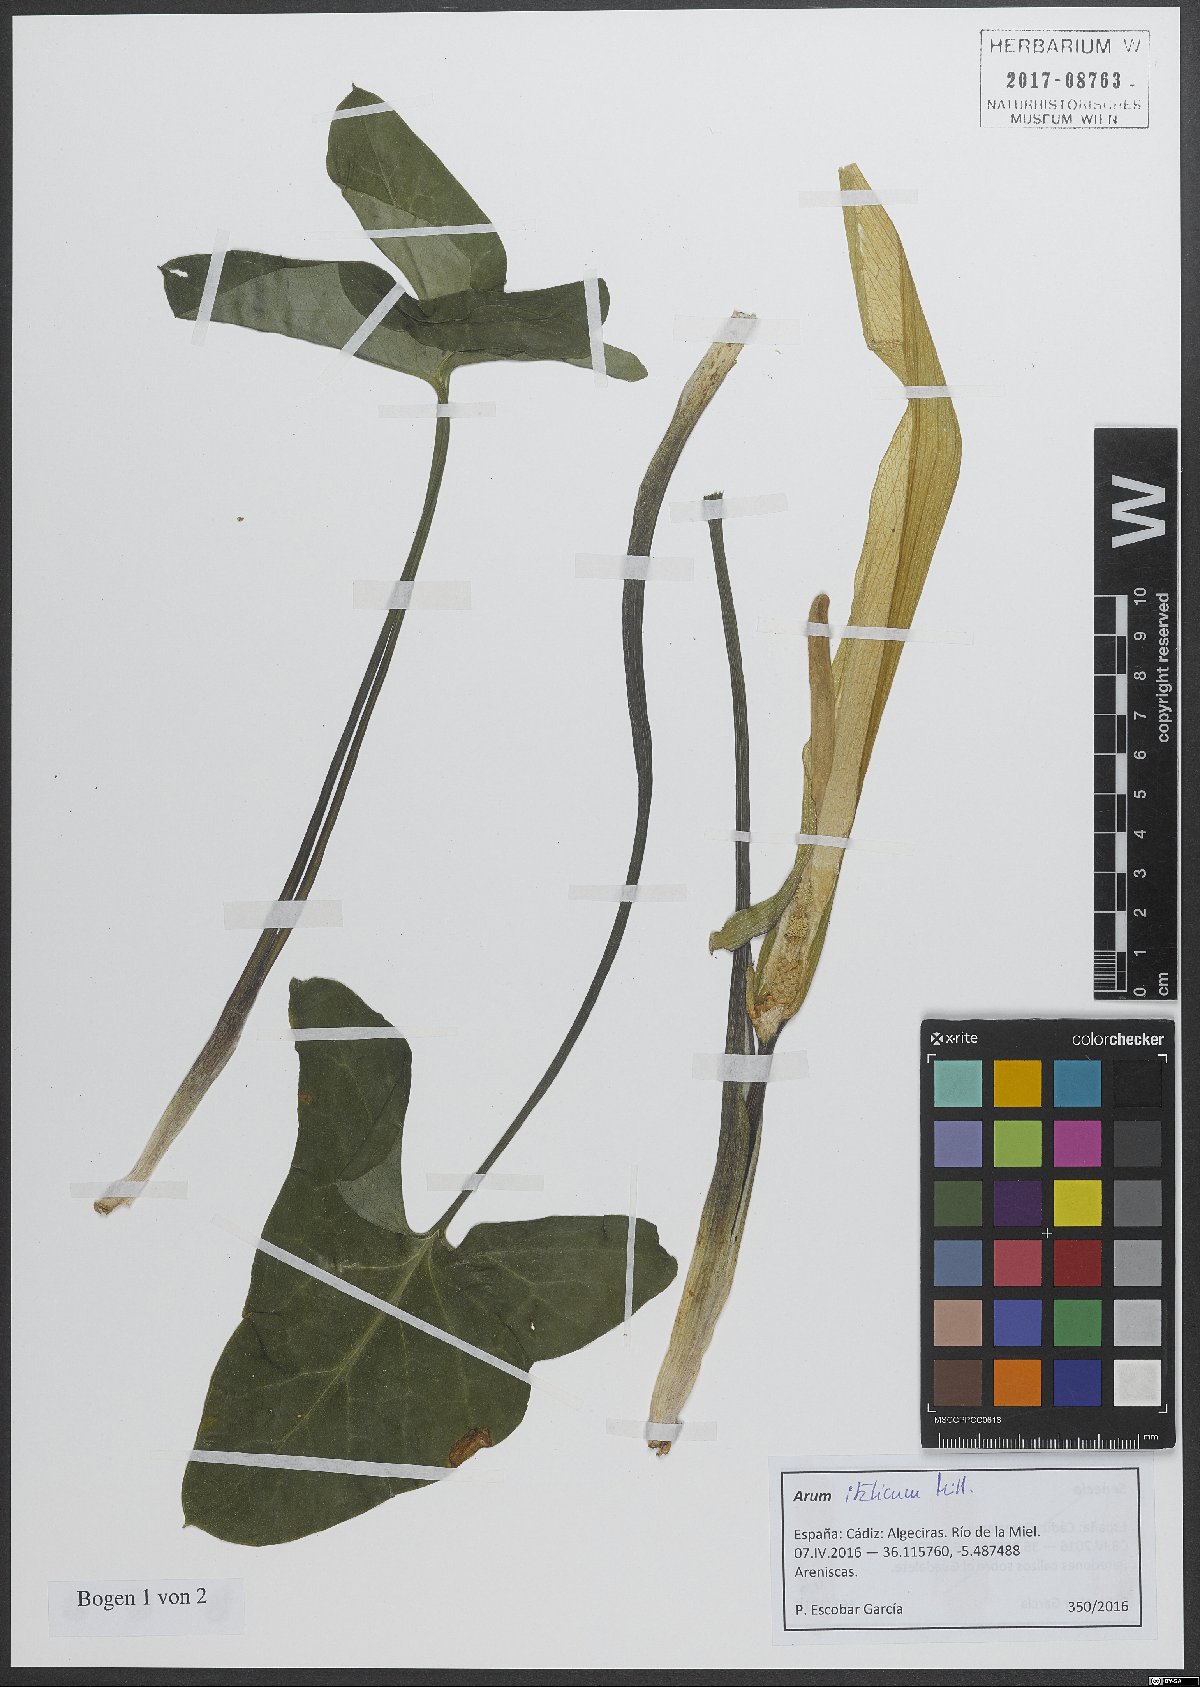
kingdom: Plantae
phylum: Tracheophyta
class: Liliopsida
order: Alismatales
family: Araceae
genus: Arum
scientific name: Arum italicum
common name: Italian lords-and-ladies
